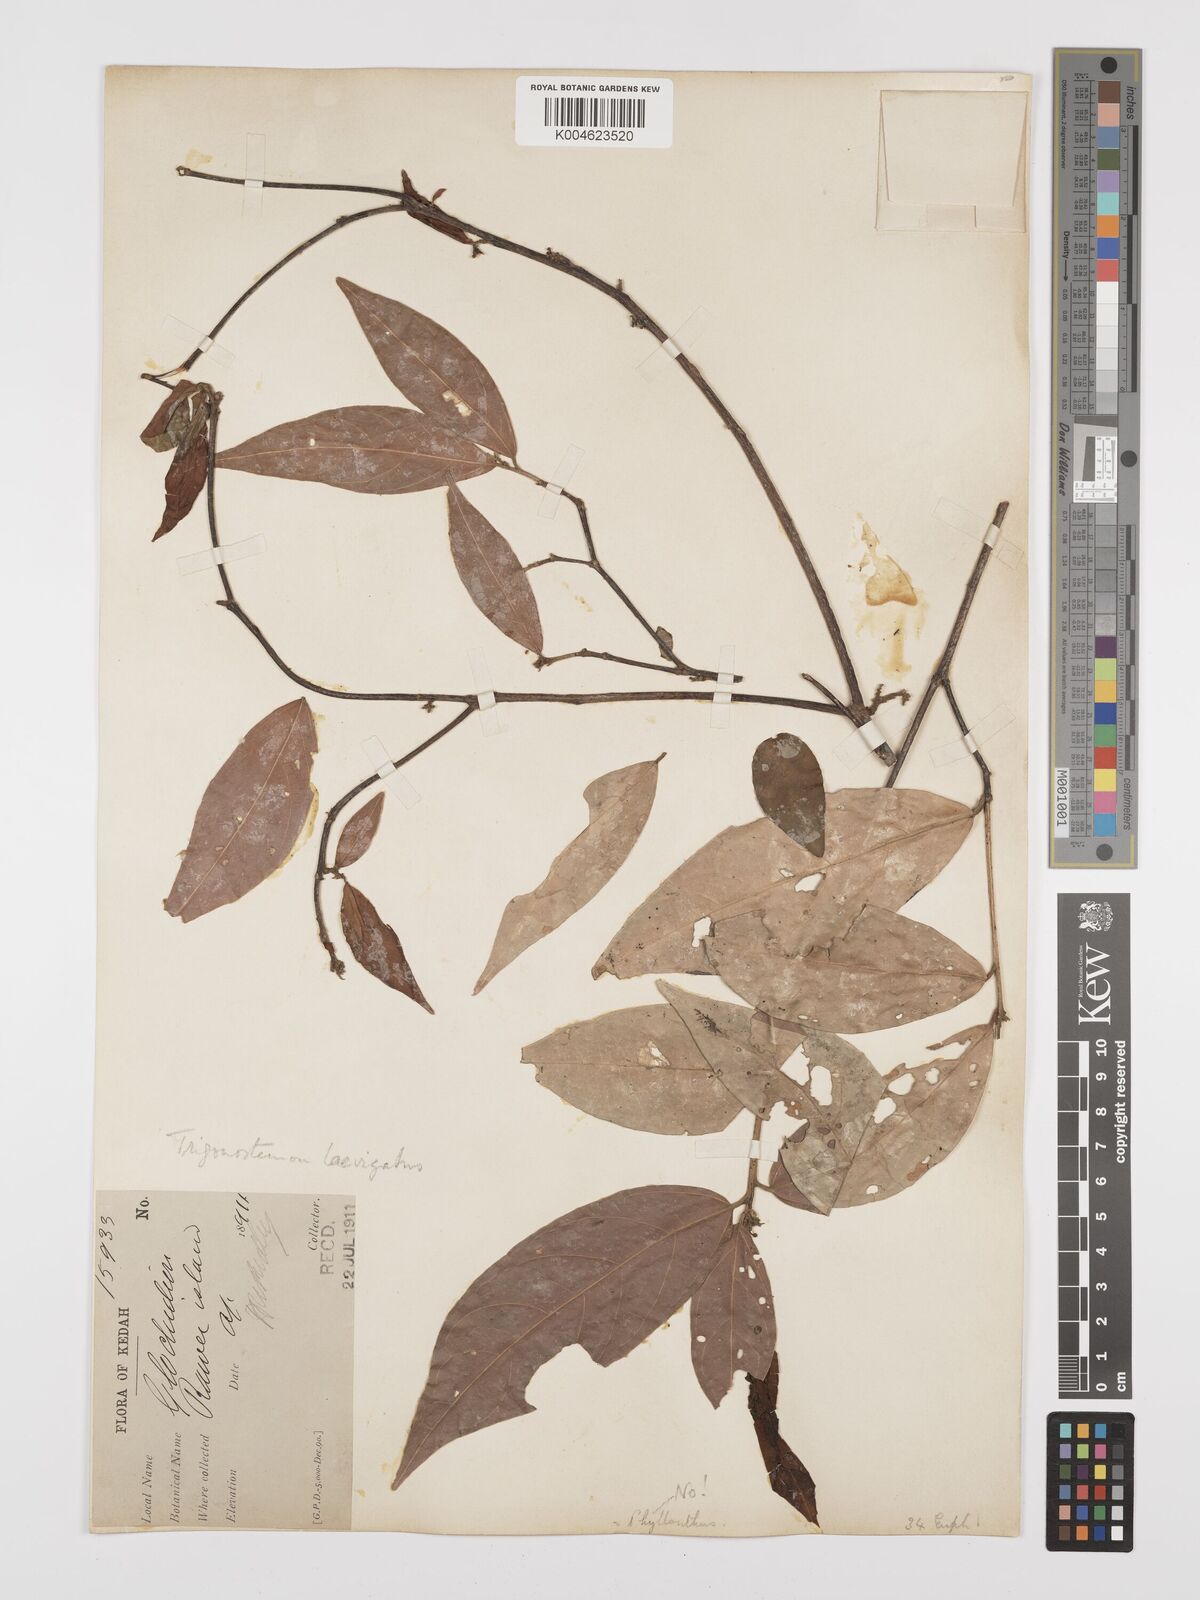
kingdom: Plantae
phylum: Tracheophyta
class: Magnoliopsida
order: Malpighiales
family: Euphorbiaceae
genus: Trigonostemon
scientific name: Trigonostemon laevigatus
